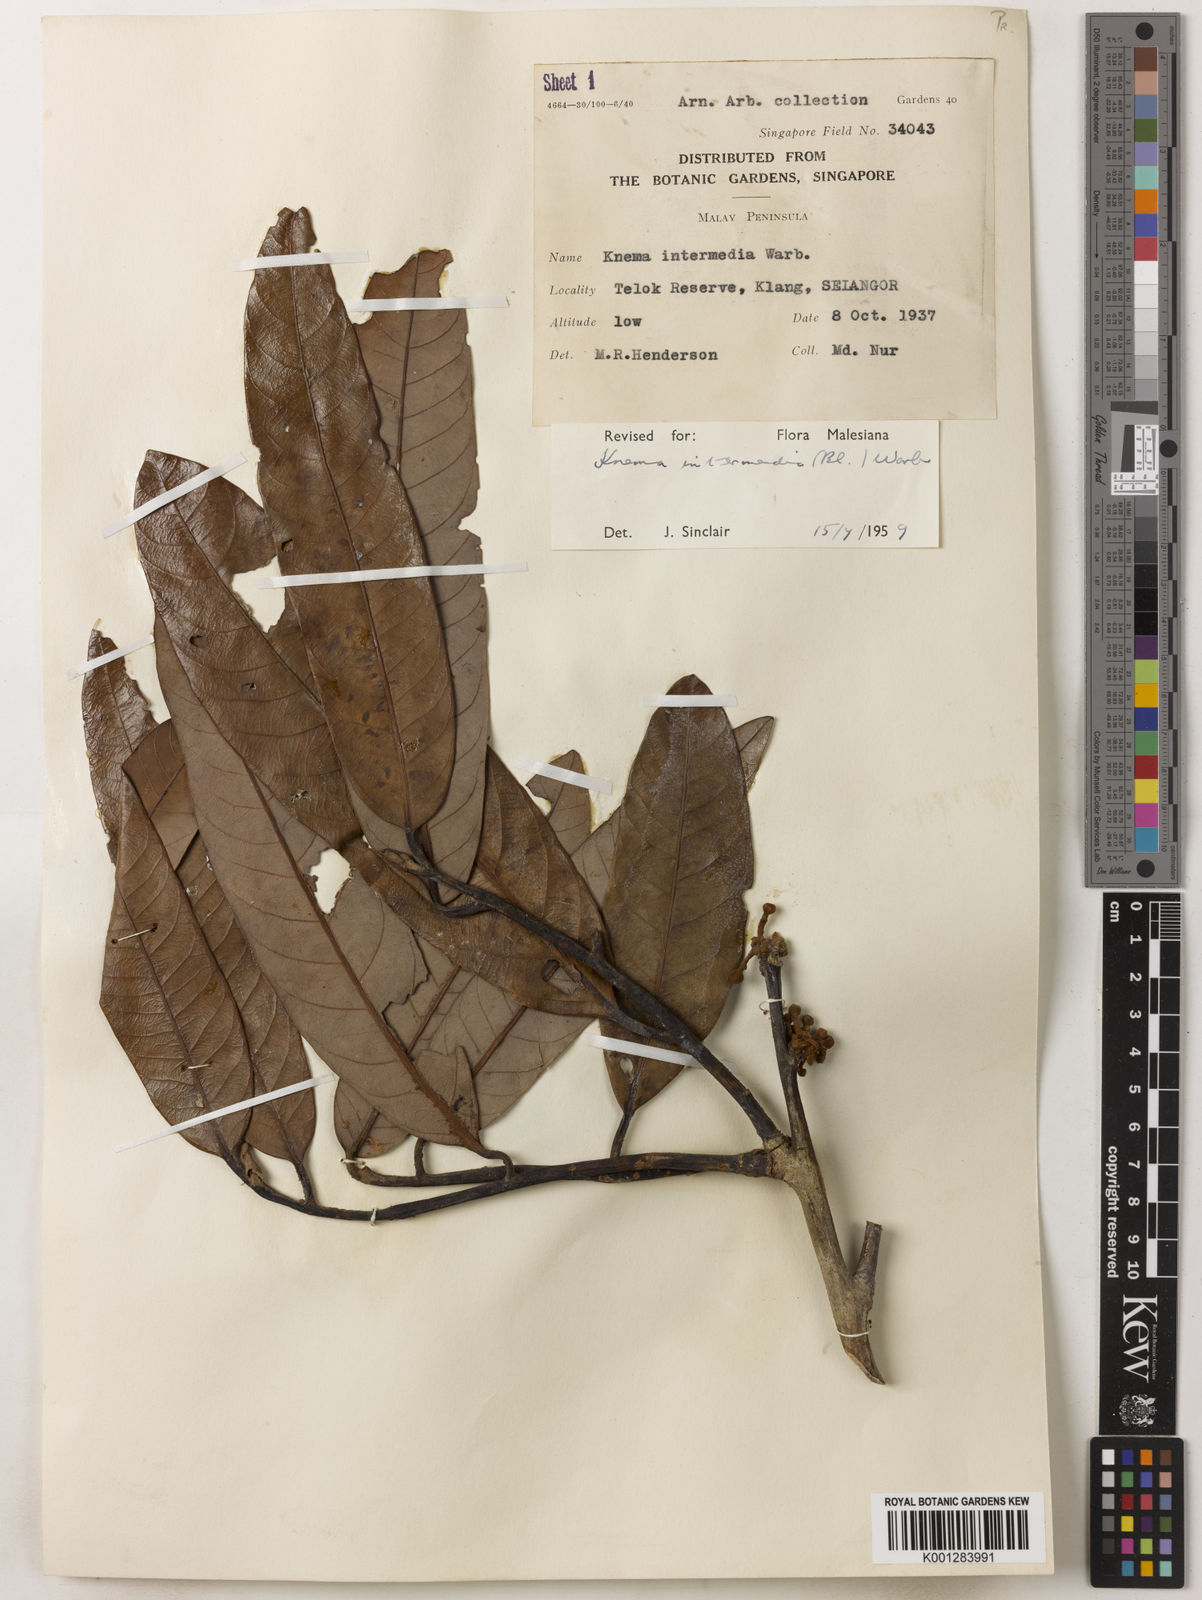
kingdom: Plantae
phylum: Tracheophyta
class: Magnoliopsida
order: Magnoliales
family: Myristicaceae
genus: Knema
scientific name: Knema intermedia
